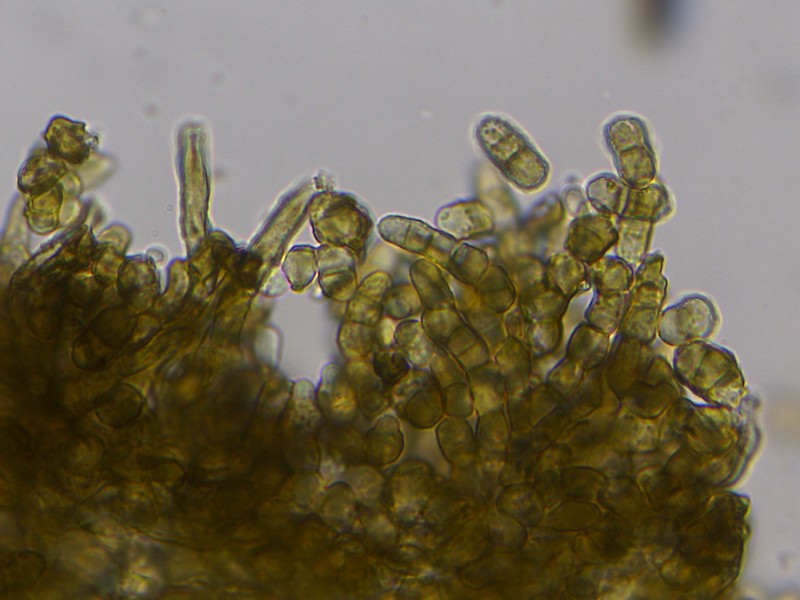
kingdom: Fungi
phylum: Ascomycota
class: Dothideomycetes
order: Capnodiales
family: Cladosporiaceae
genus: Cladosporium
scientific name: Cladosporium
